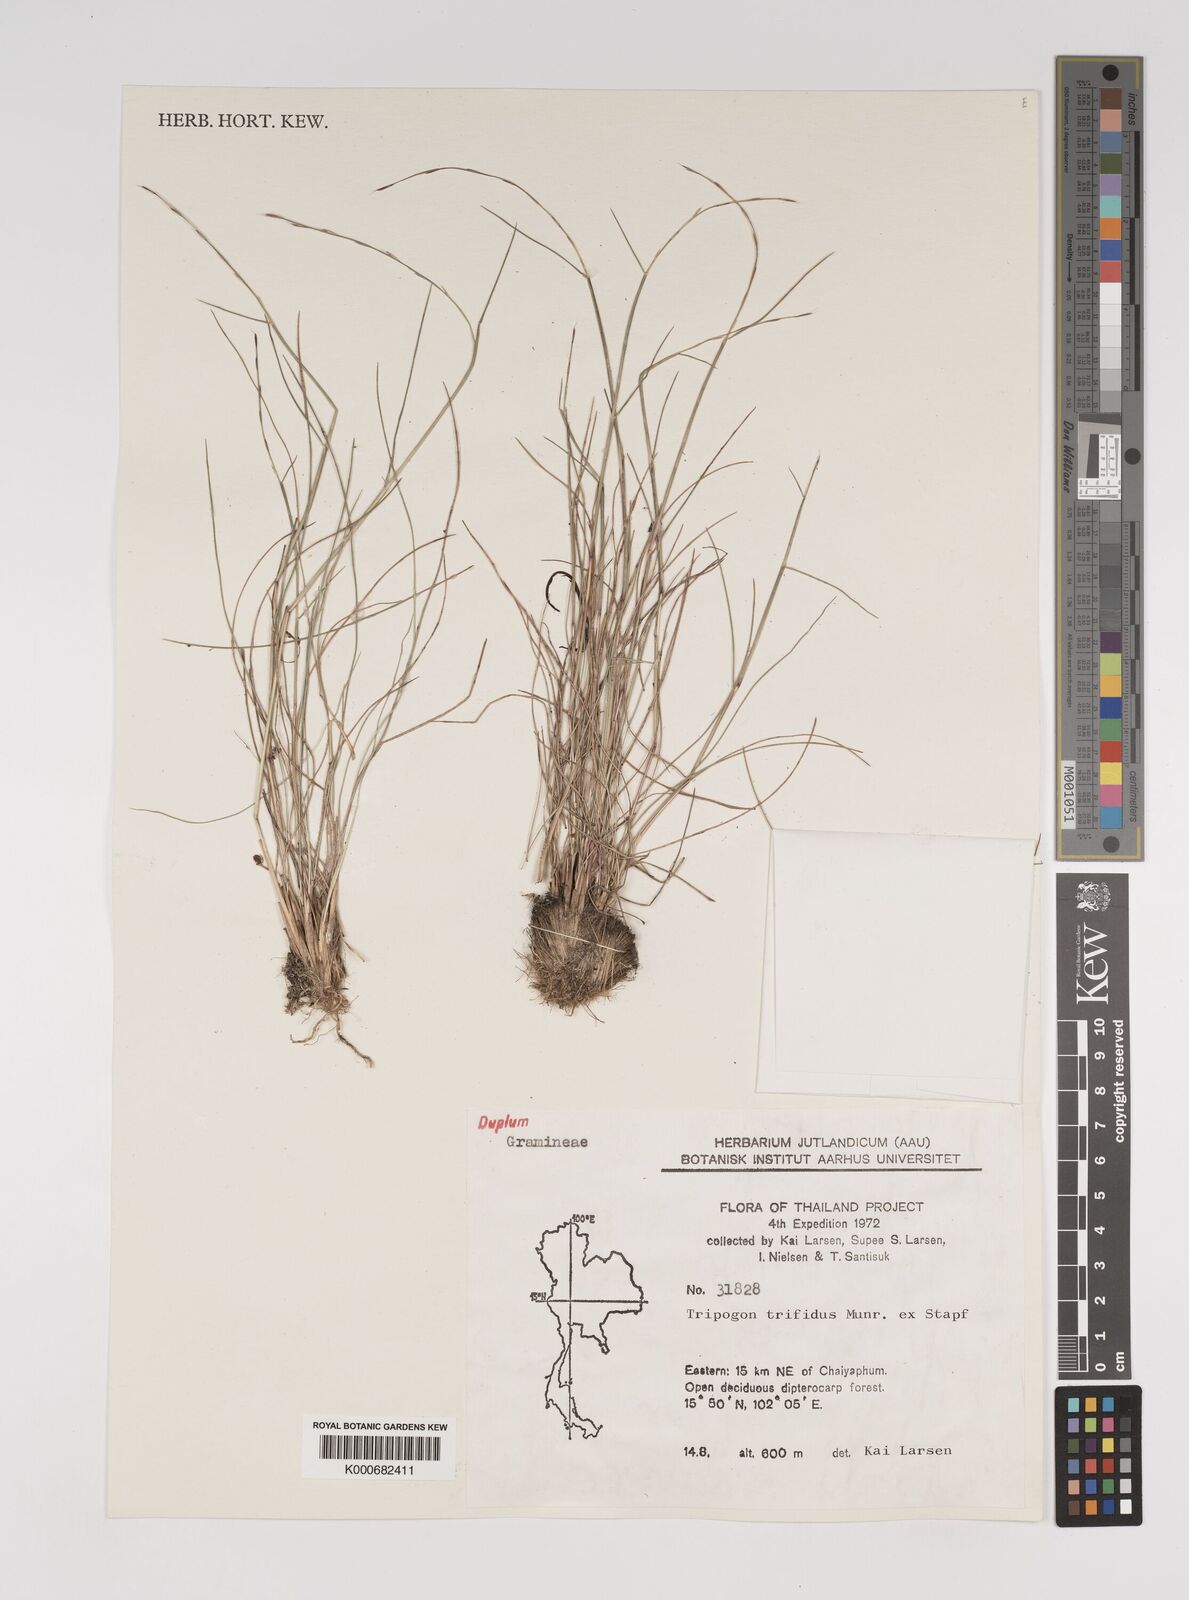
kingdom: Plantae
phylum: Tracheophyta
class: Liliopsida
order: Poales
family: Poaceae
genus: Tripogon
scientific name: Tripogon trifidus
